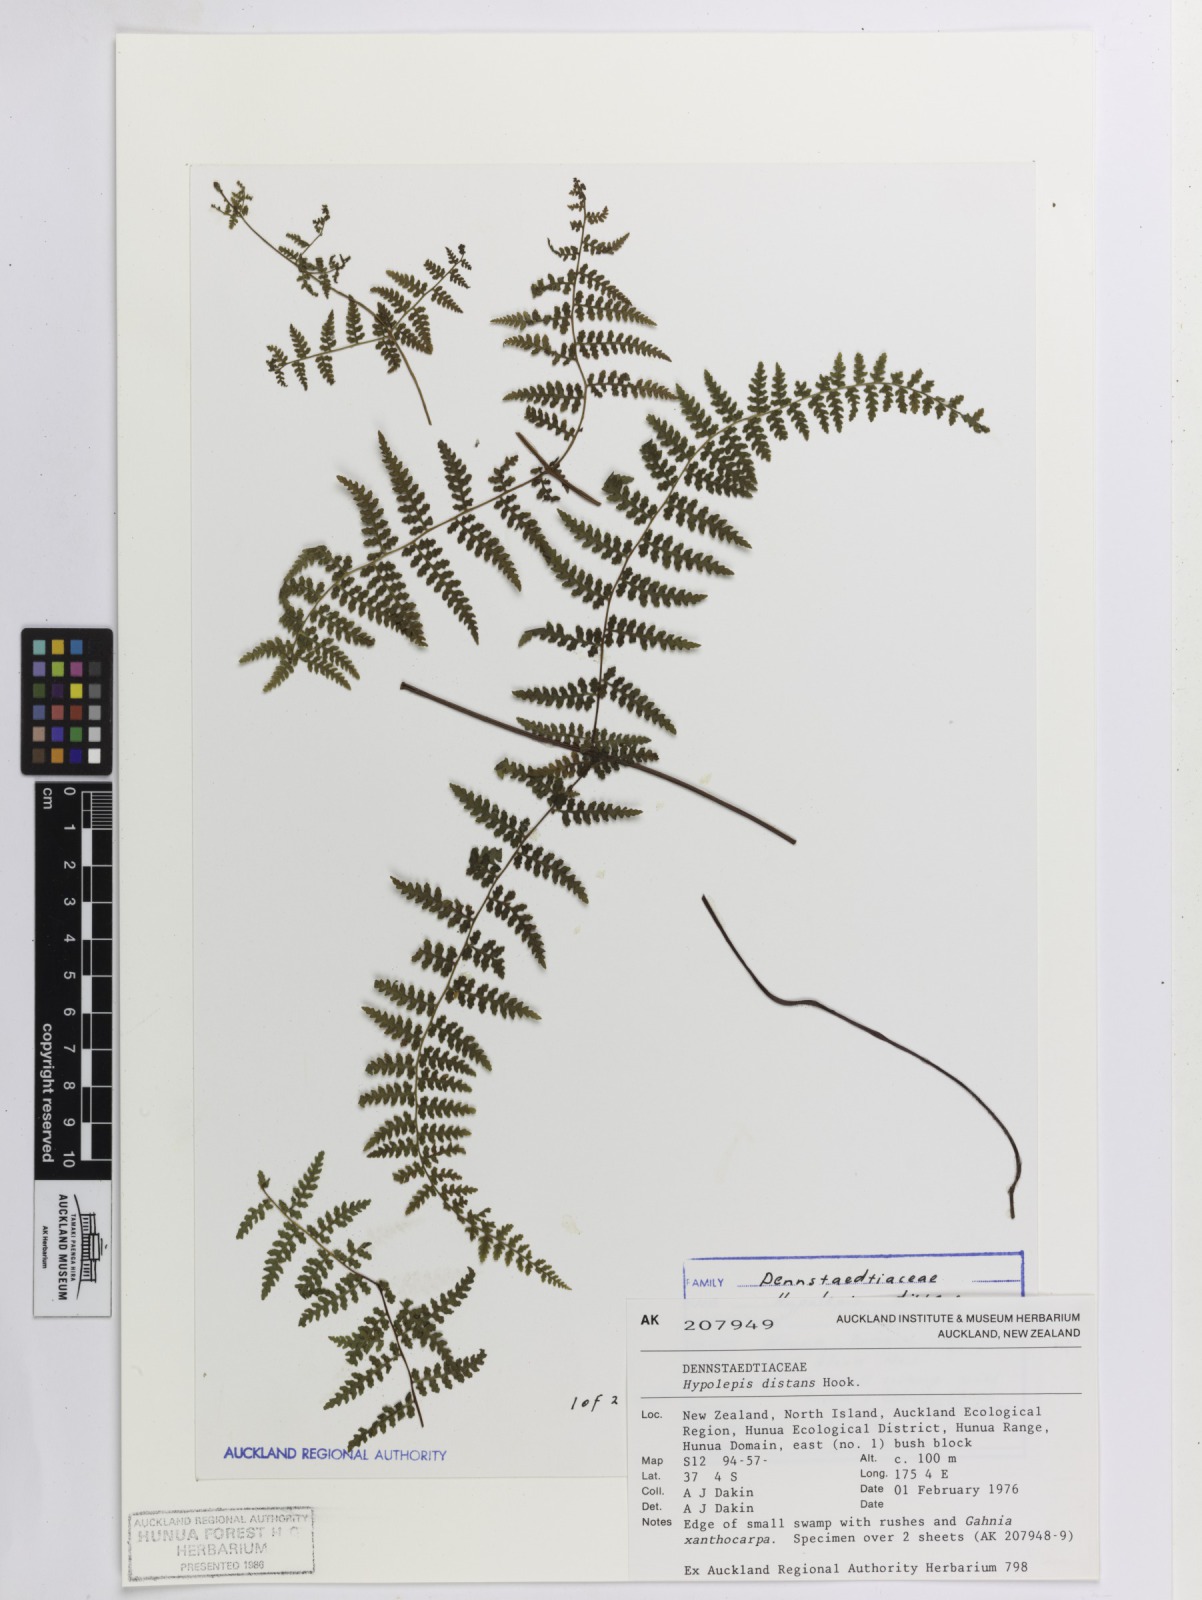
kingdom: Plantae
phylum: Tracheophyta
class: Polypodiopsida
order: Polypodiales
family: Dennstaedtiaceae
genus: Hiya
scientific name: Hiya distans
